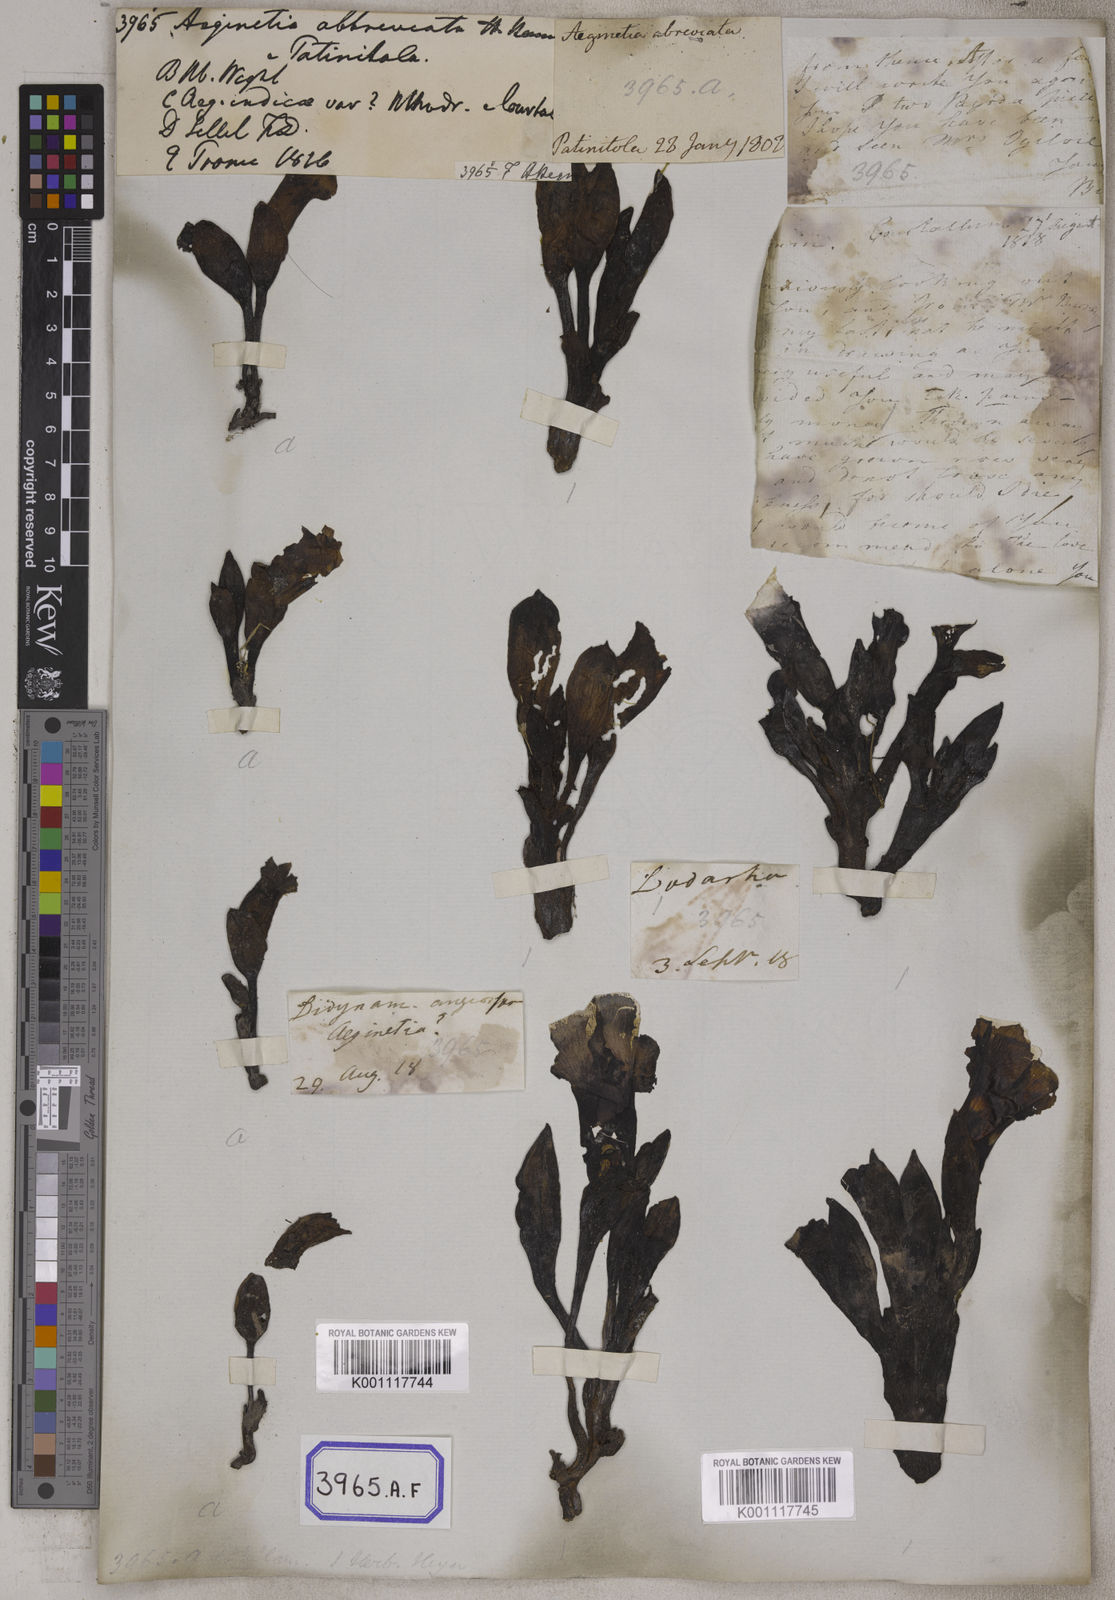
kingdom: Plantae
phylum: Tracheophyta
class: Magnoliopsida
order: Lamiales
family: Orobanchaceae
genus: Aeginetia
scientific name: Aeginetia indica
